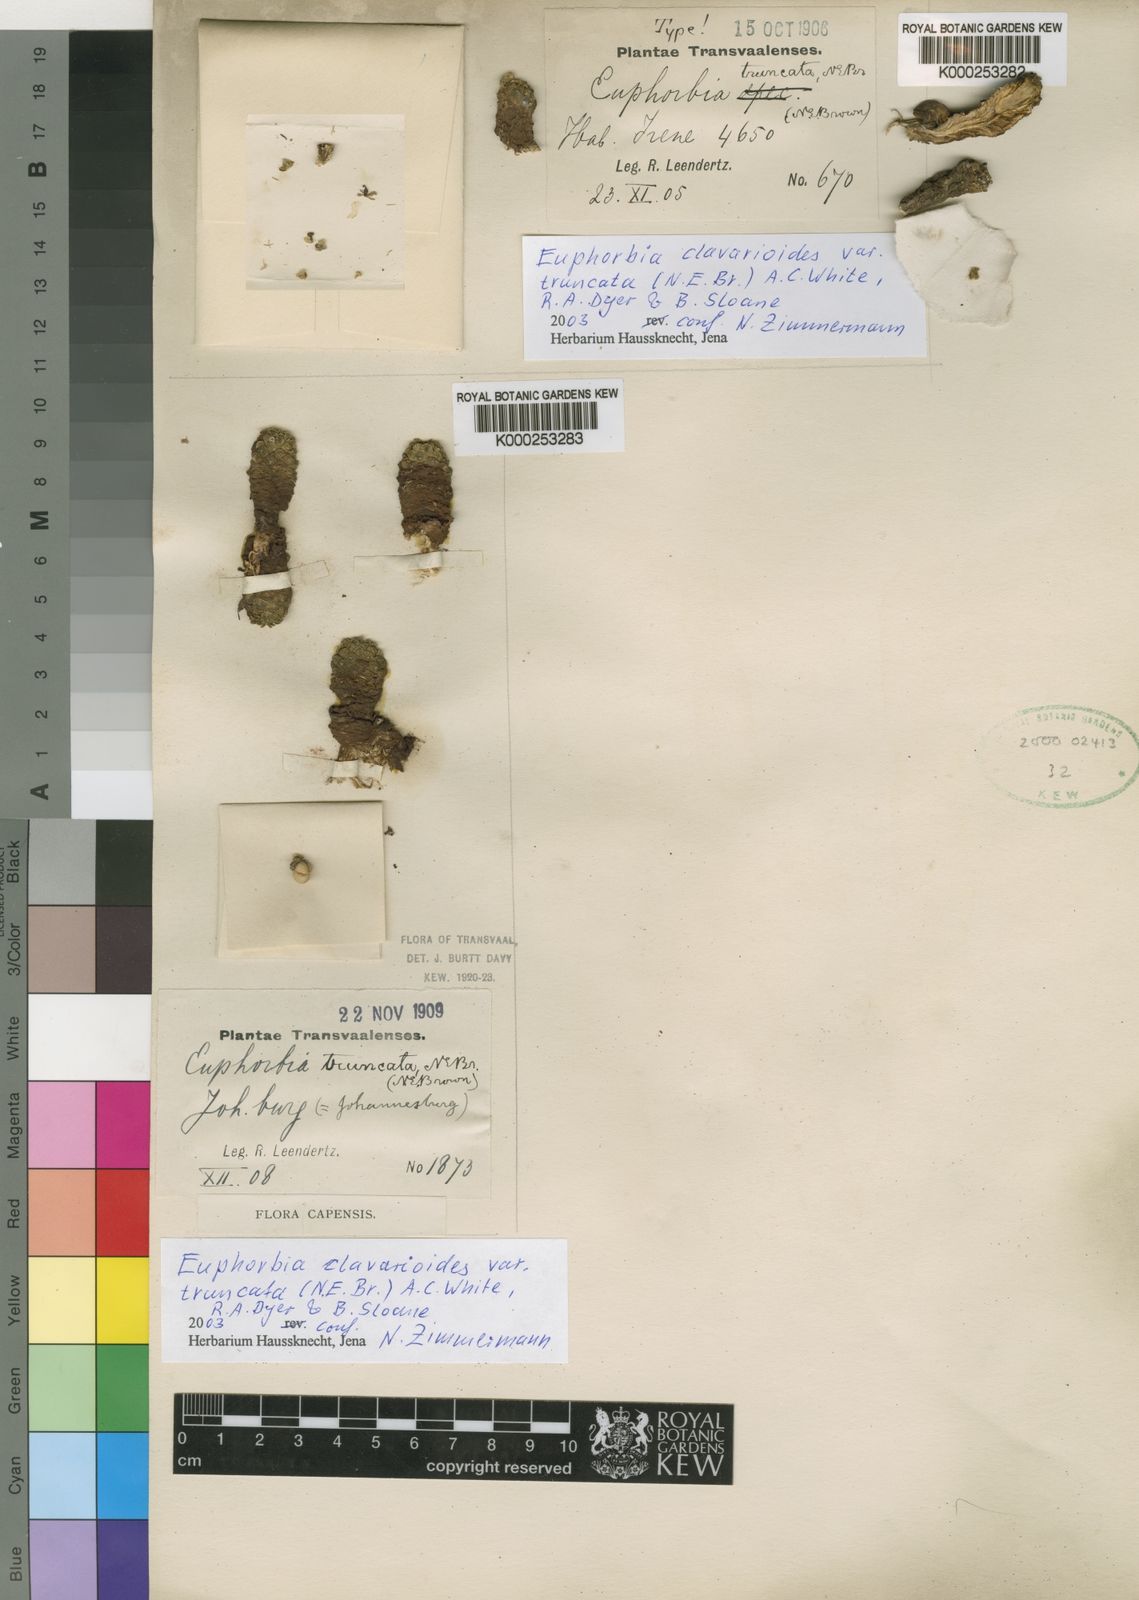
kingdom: Plantae
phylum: Tracheophyta
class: Magnoliopsida
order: Malpighiales
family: Euphorbiaceae
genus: Euphorbia
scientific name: Euphorbia clavarioides
